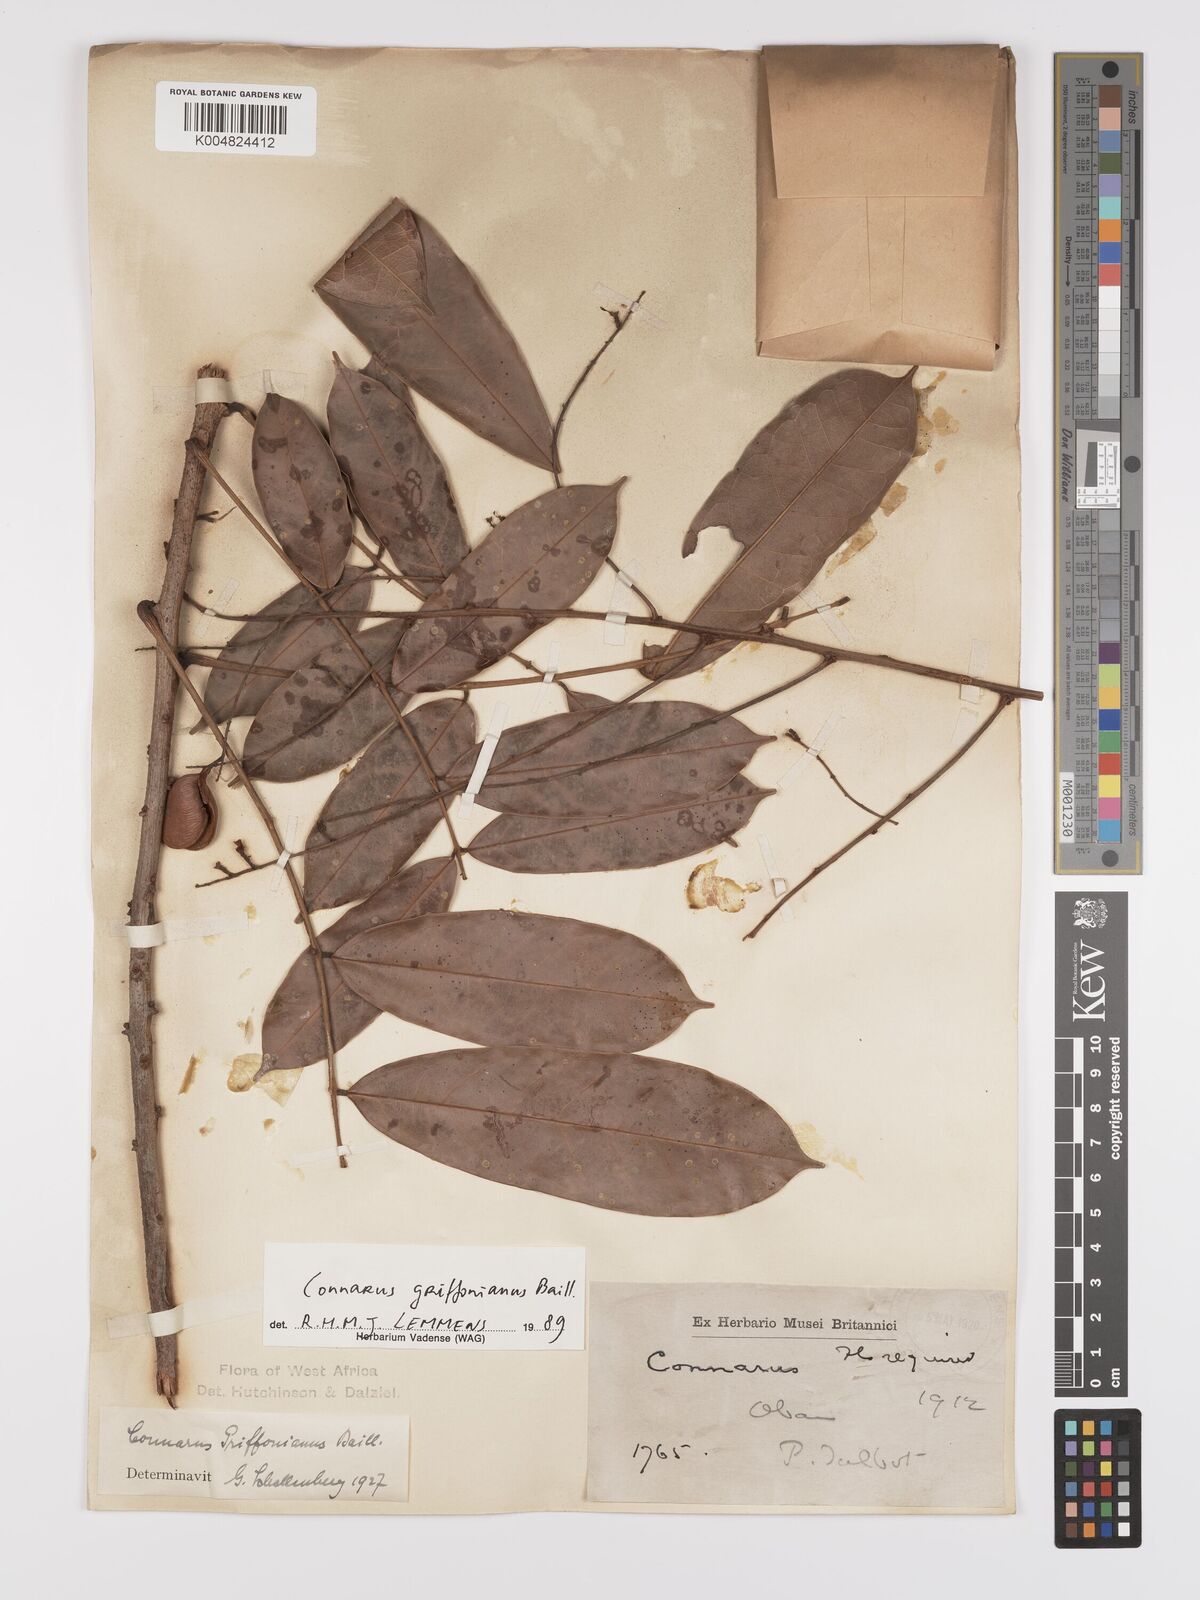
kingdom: Plantae
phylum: Tracheophyta
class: Magnoliopsida
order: Oxalidales
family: Connaraceae
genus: Connarus
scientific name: Connarus griffonianus
